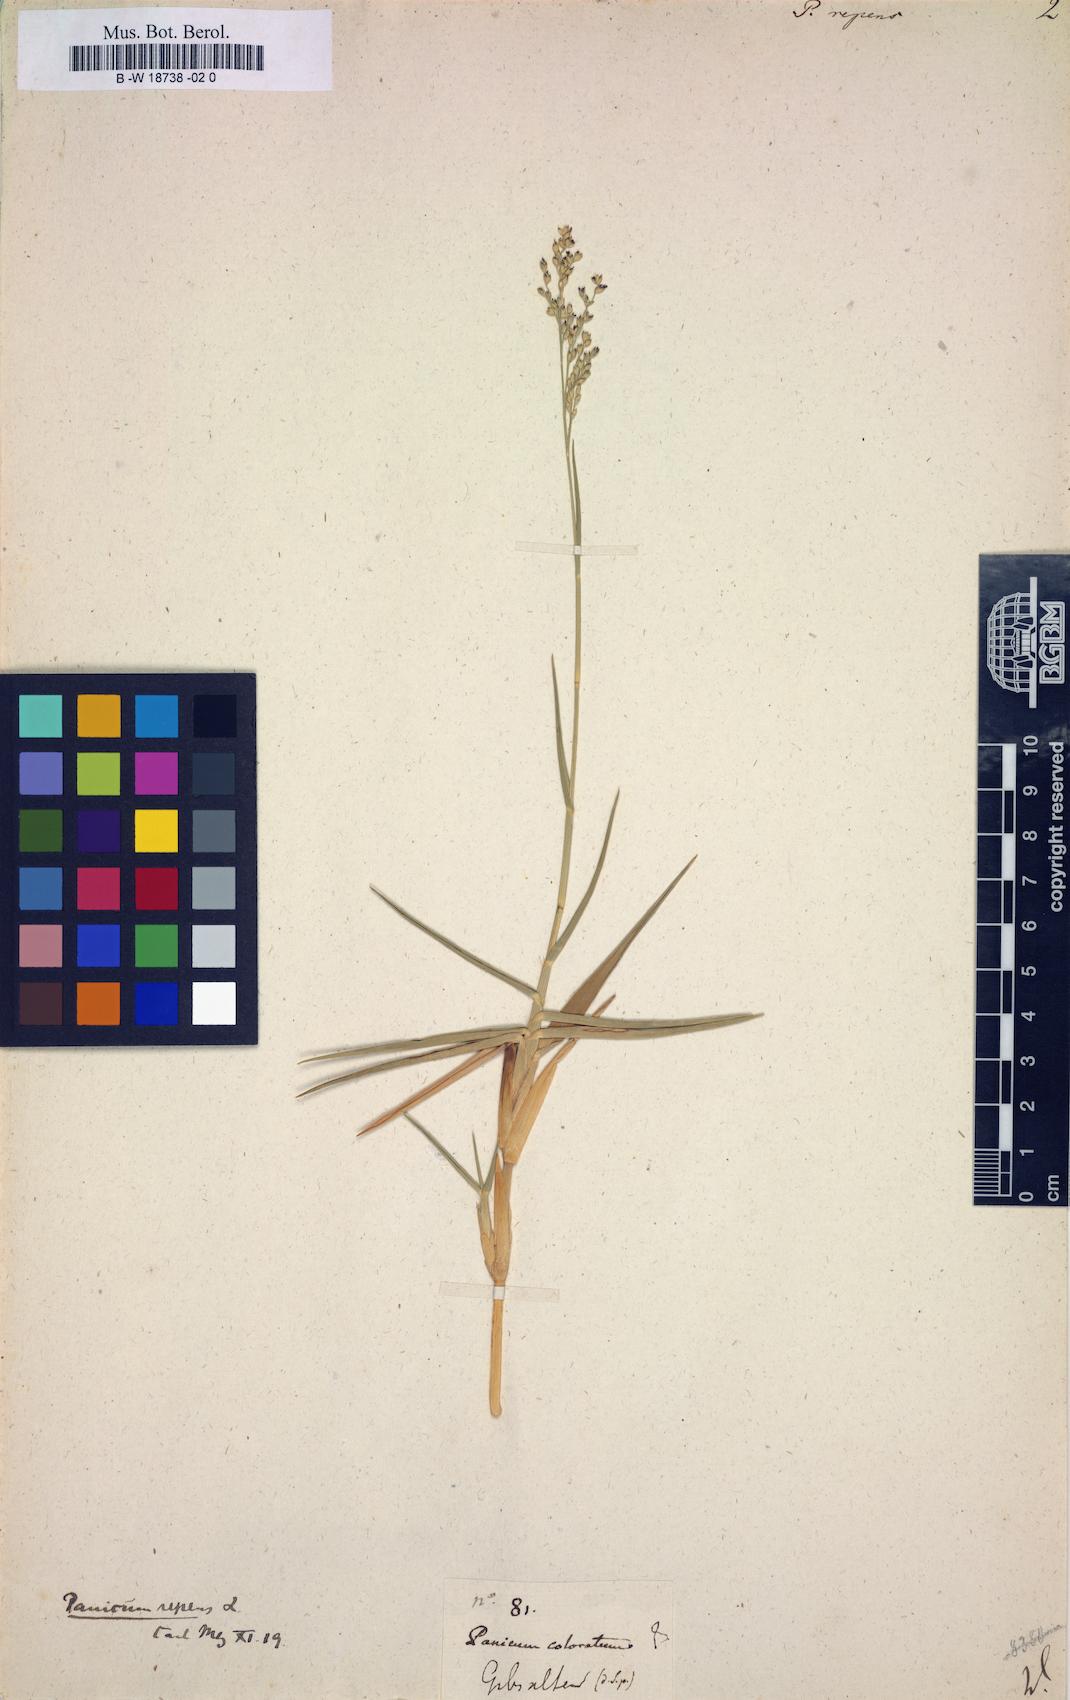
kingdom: Plantae
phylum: Tracheophyta
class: Liliopsida
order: Poales
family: Poaceae
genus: Panicum
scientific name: Panicum repens
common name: Torpedo grass
